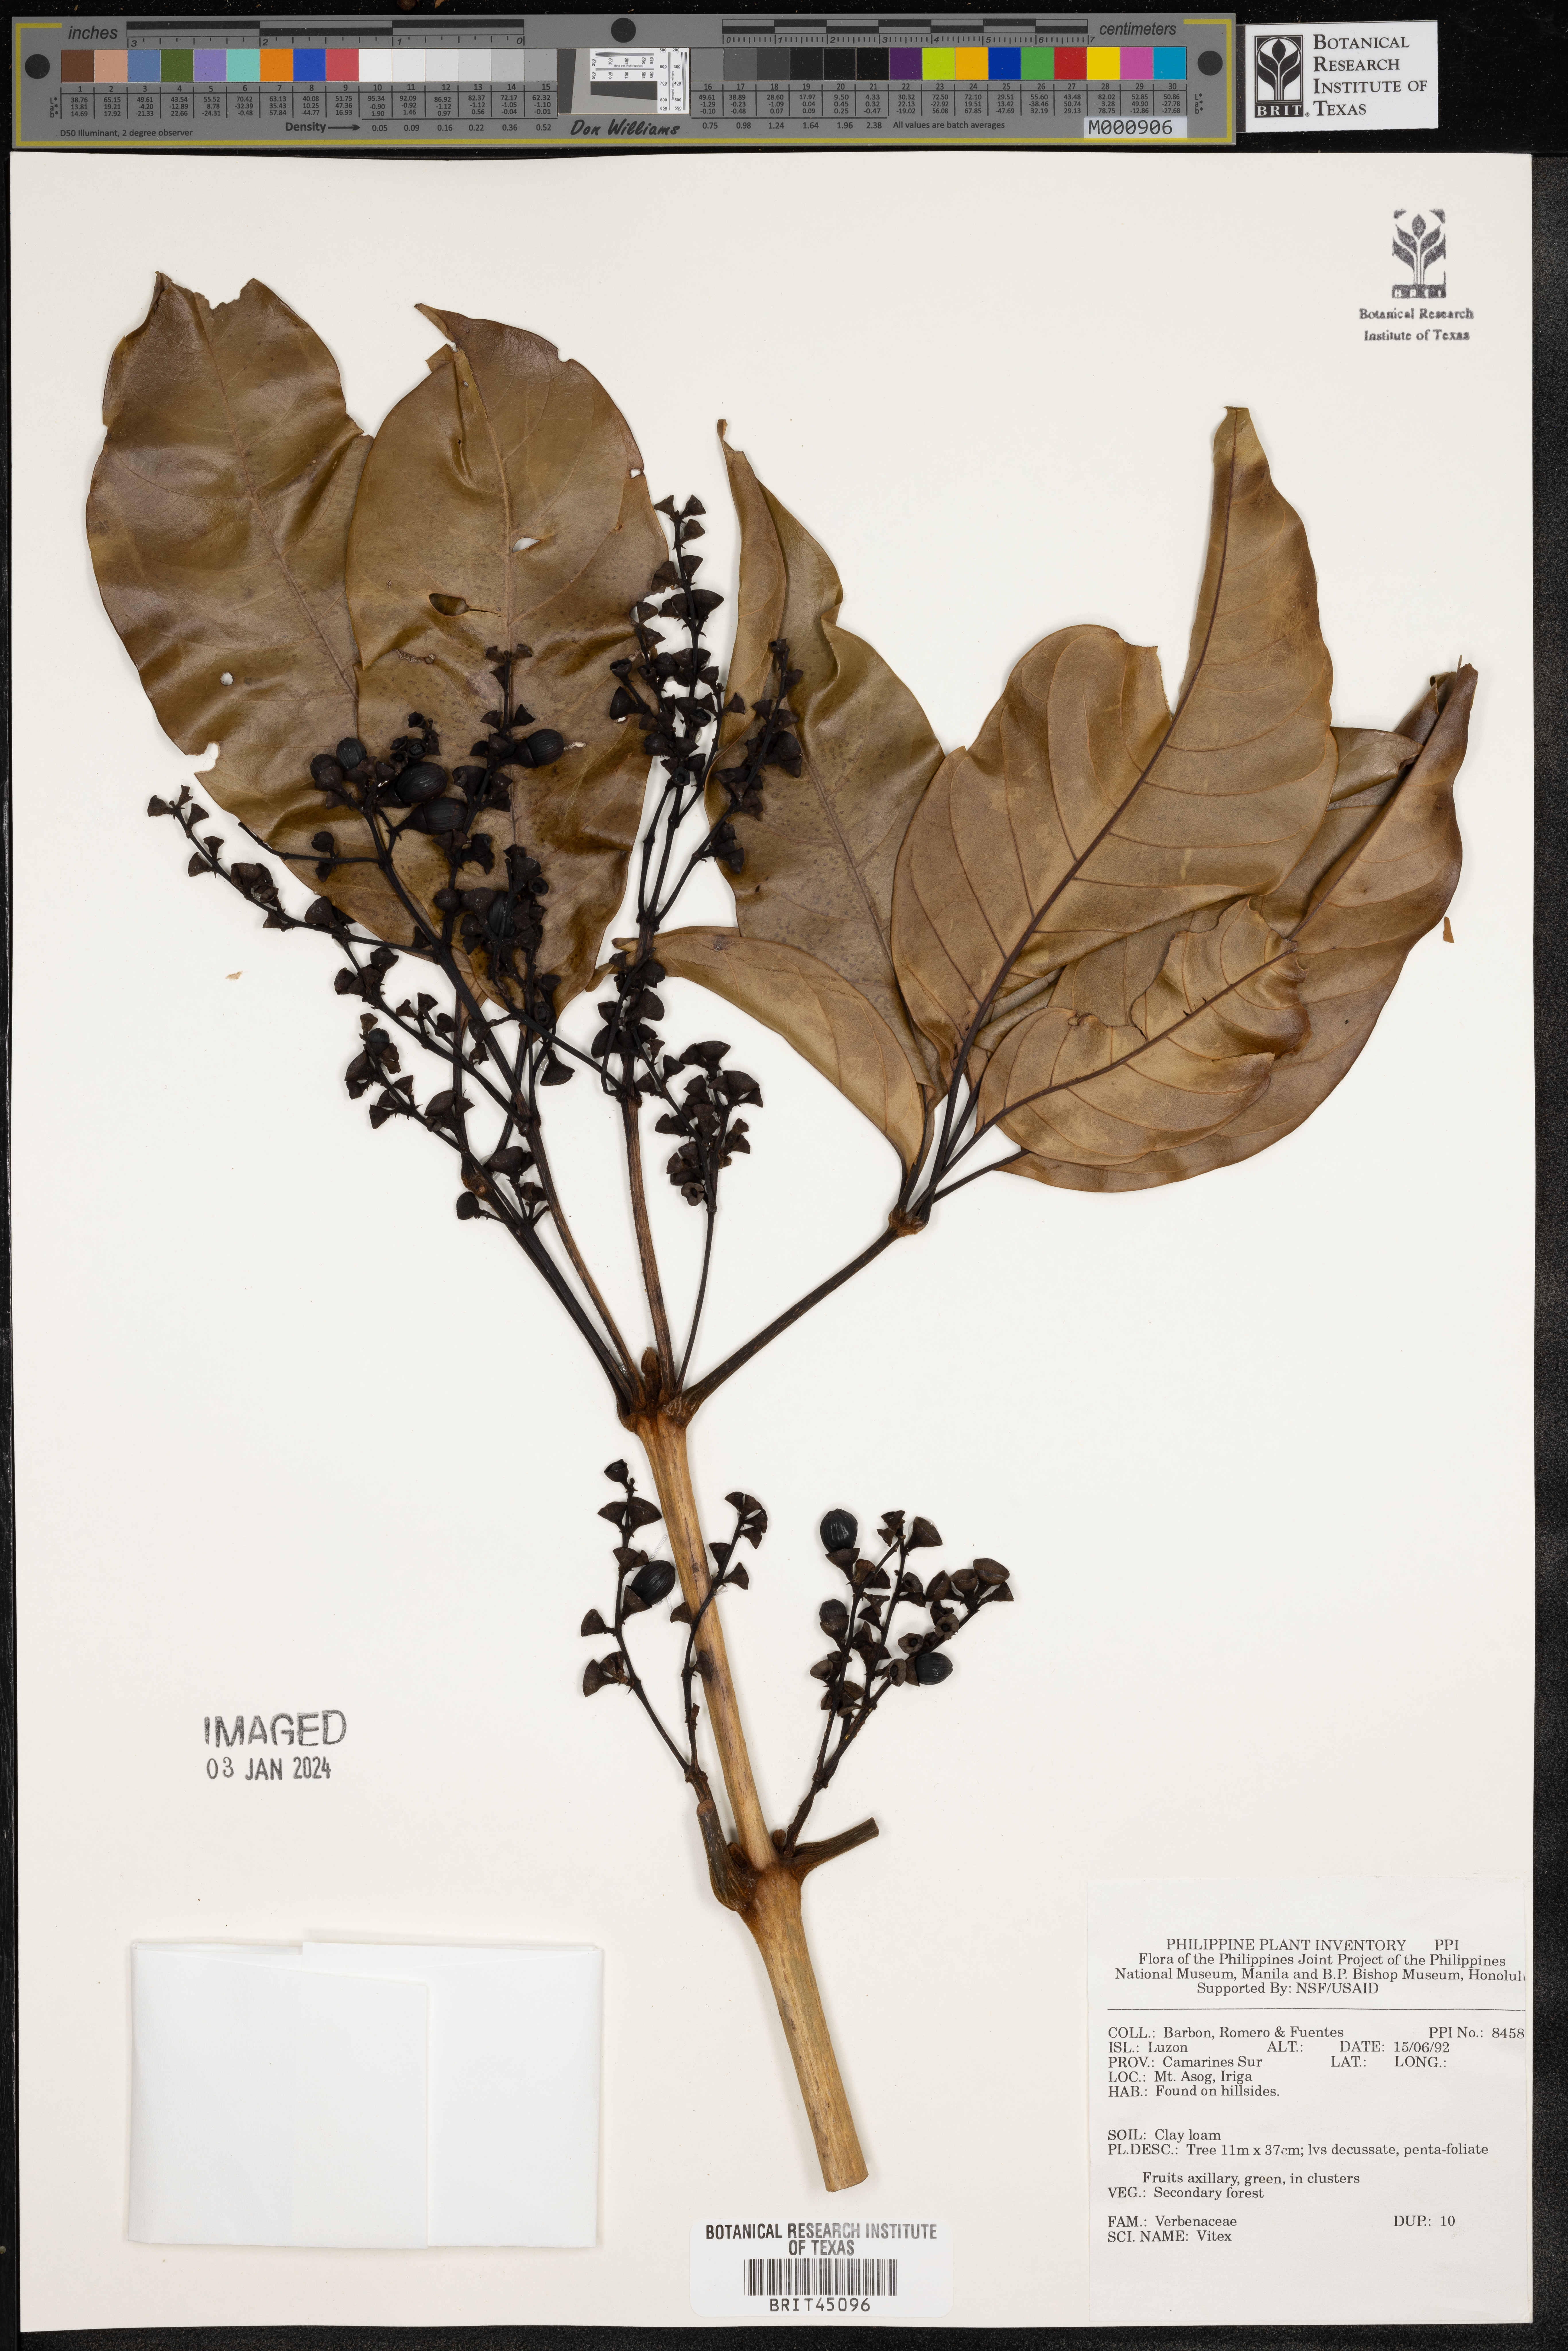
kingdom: Plantae
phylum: Tracheophyta
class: Magnoliopsida
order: Lamiales
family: Lamiaceae
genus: Vitex
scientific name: Vitex
